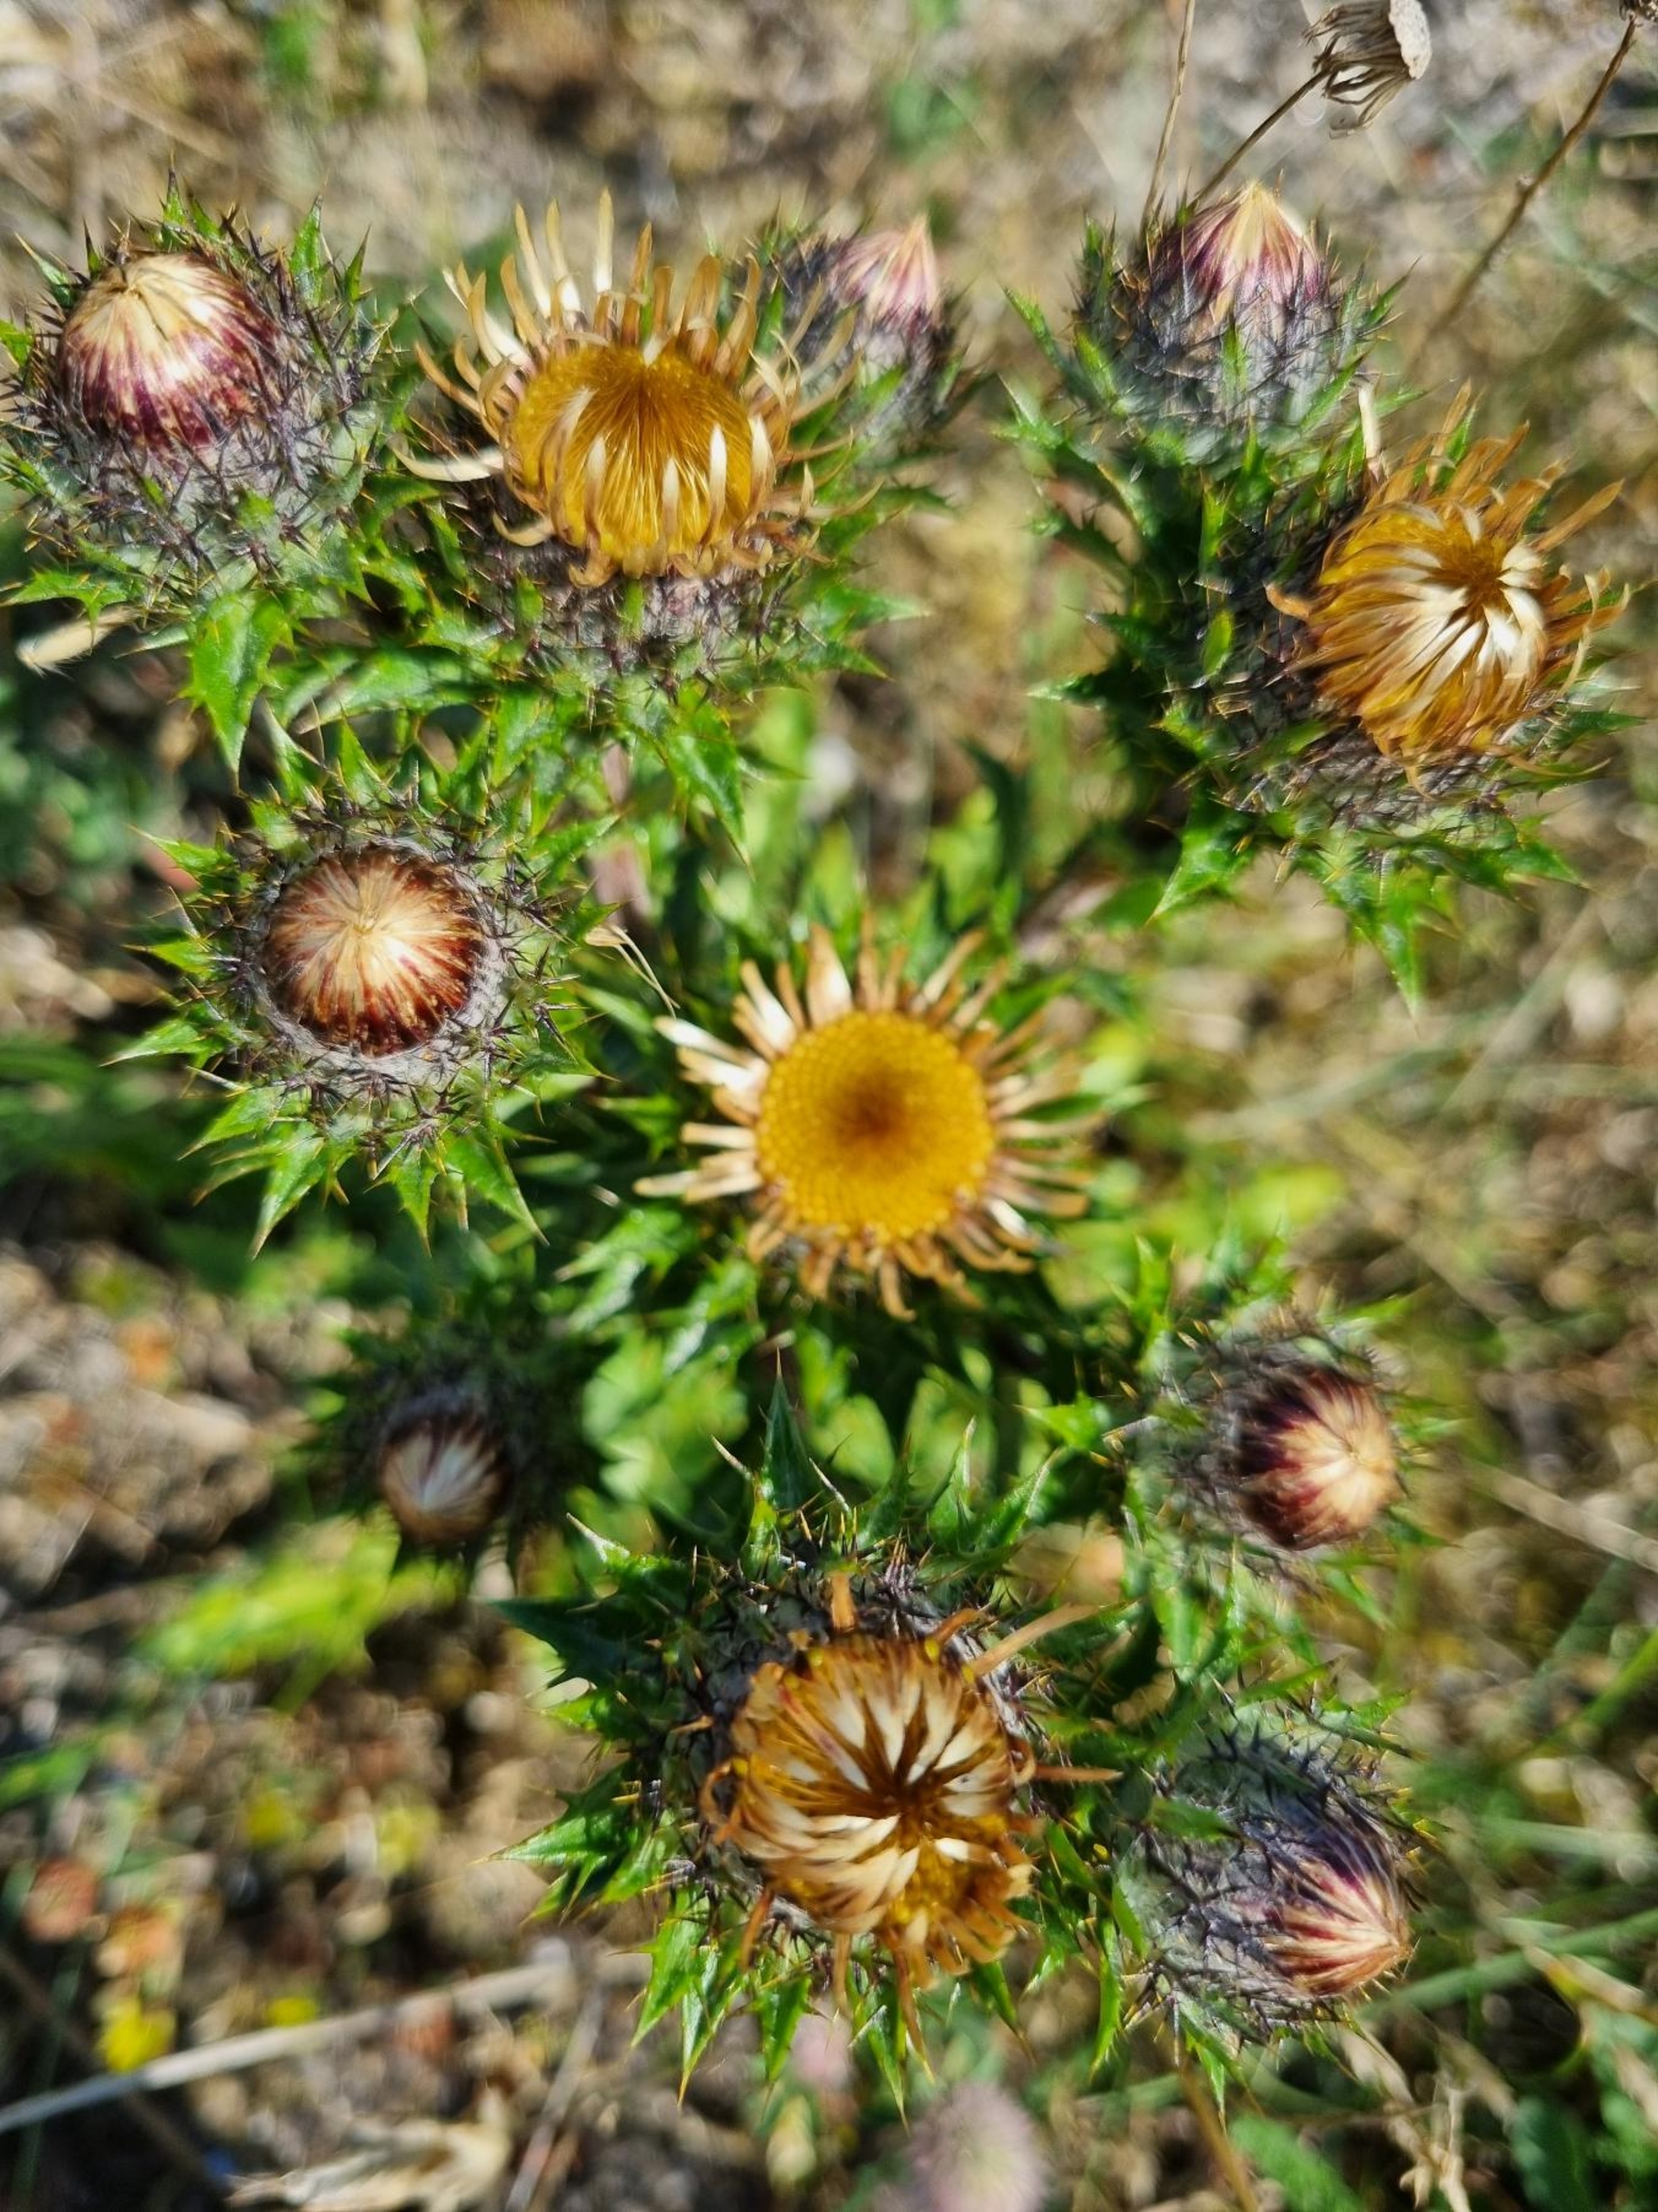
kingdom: Plantae
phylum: Tracheophyta
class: Magnoliopsida
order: Asterales
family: Asteraceae
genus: Carlina
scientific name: Carlina vulgaris
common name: Bakketidsel
